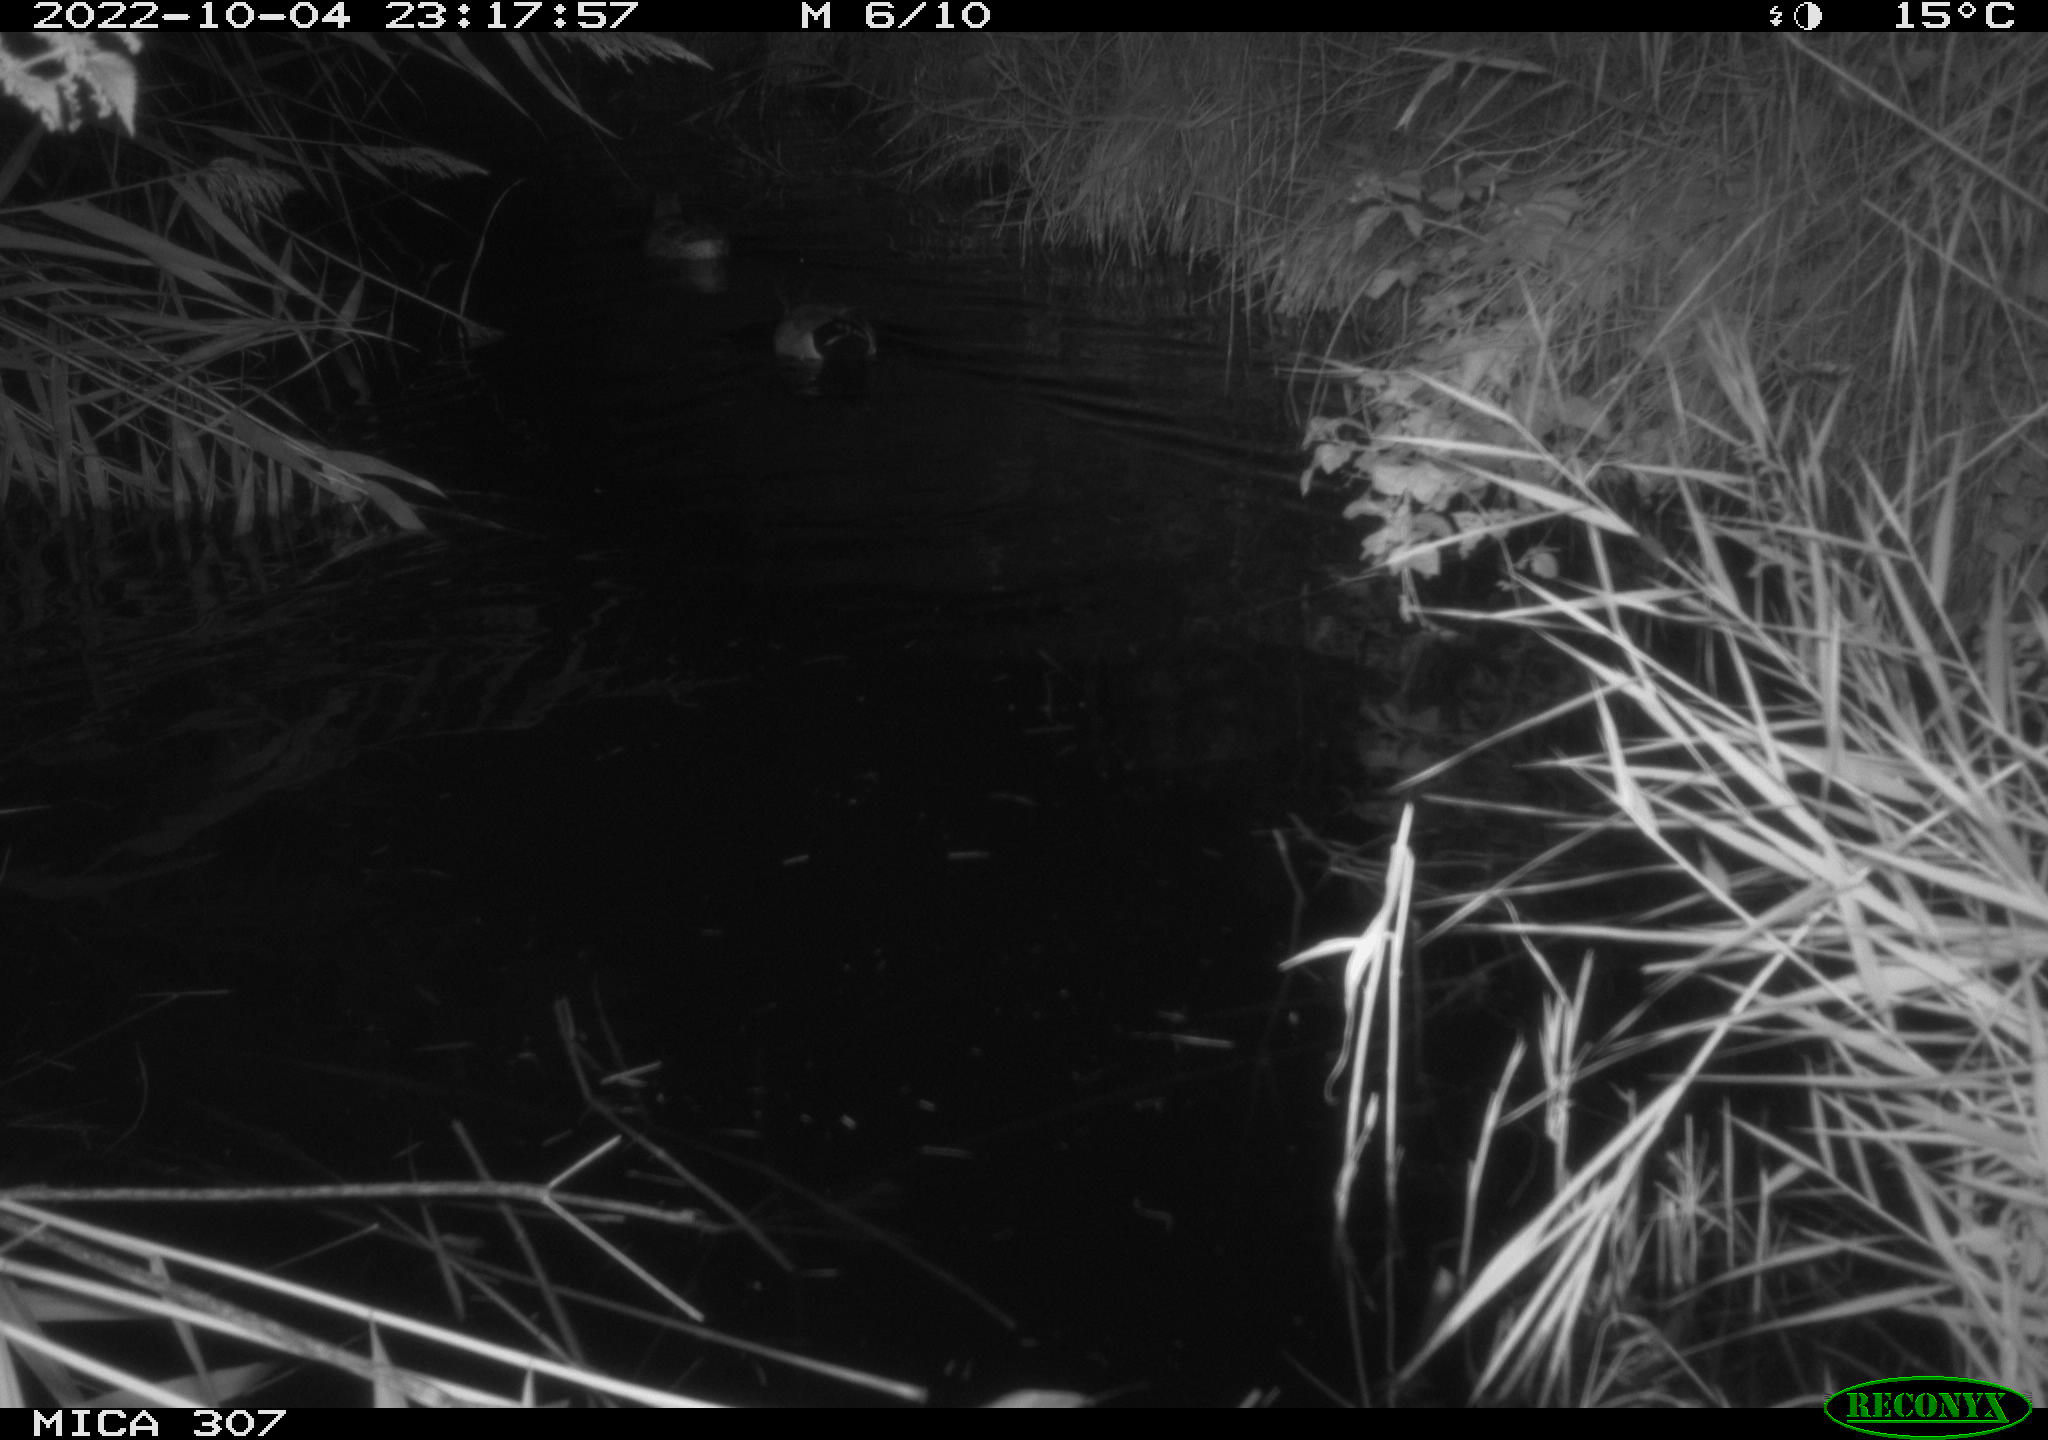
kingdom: Animalia
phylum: Chordata
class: Aves
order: Anseriformes
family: Anatidae
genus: Anas
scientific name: Anas
